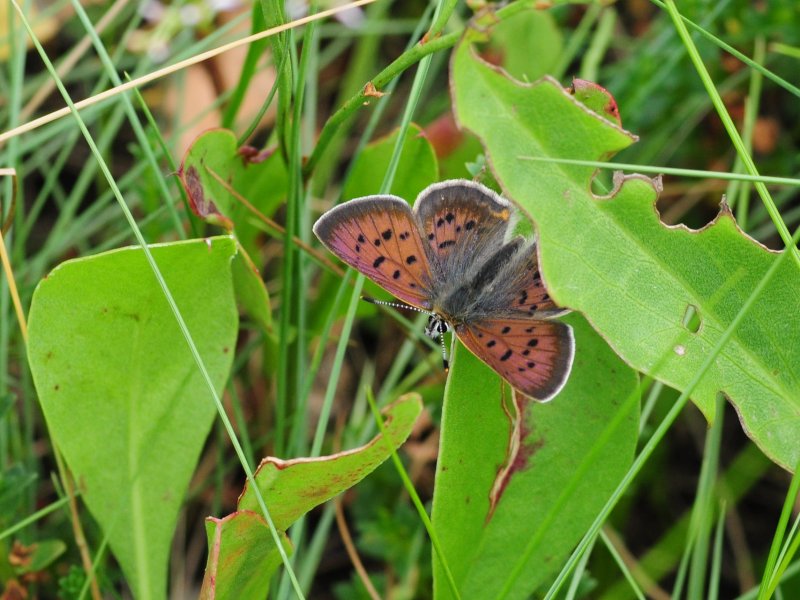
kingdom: Animalia
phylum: Arthropoda
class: Insecta
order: Lepidoptera
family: Lycaenidae
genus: Epidemia
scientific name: Epidemia dorcas
